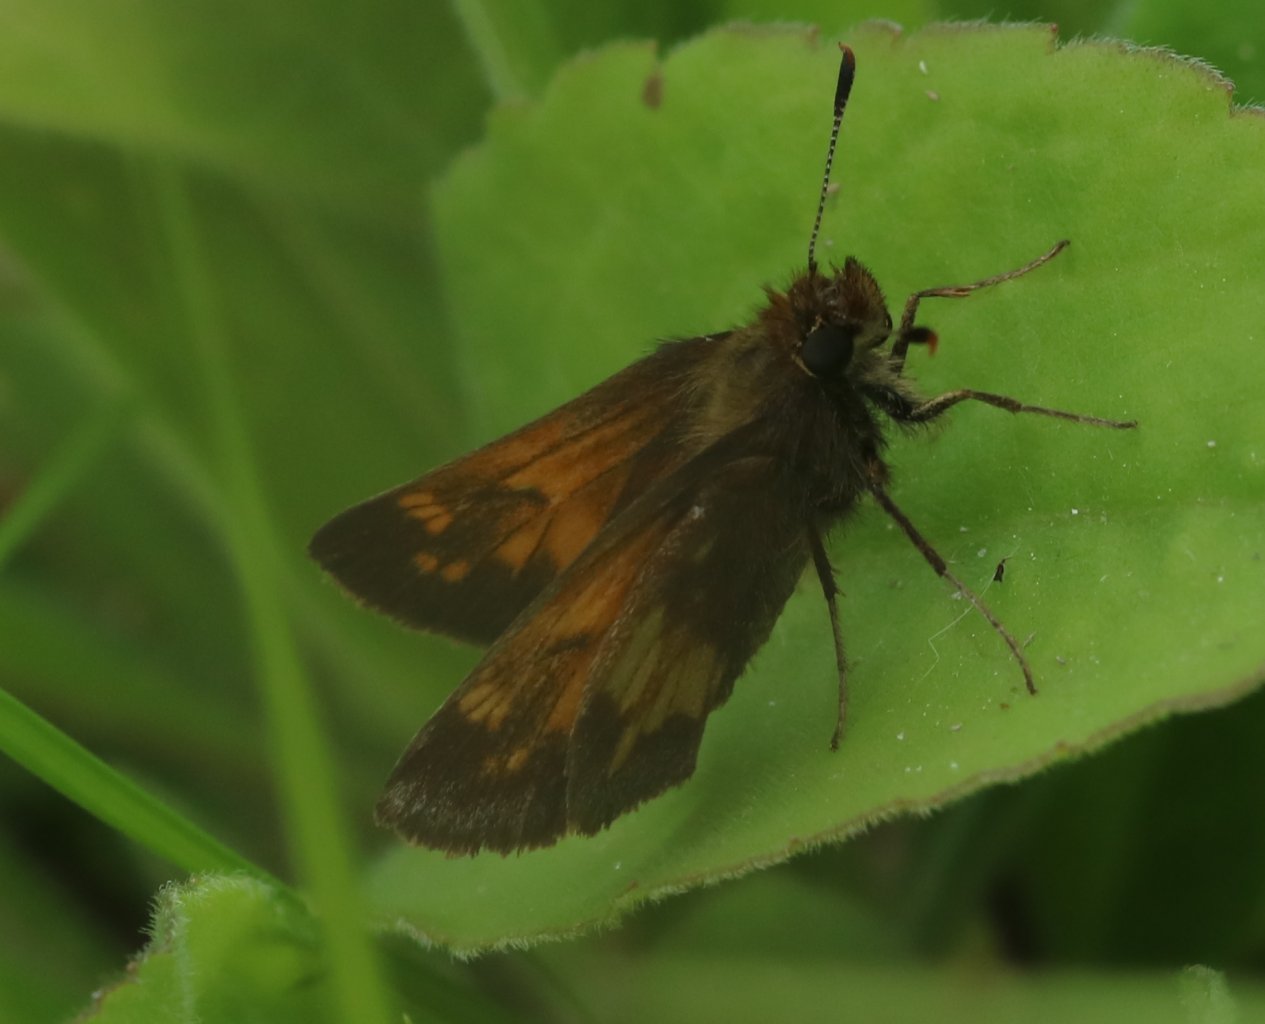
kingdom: Animalia
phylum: Arthropoda
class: Insecta
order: Lepidoptera
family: Hesperiidae
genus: Lon
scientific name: Lon hobomok
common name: Hobomok Skipper
